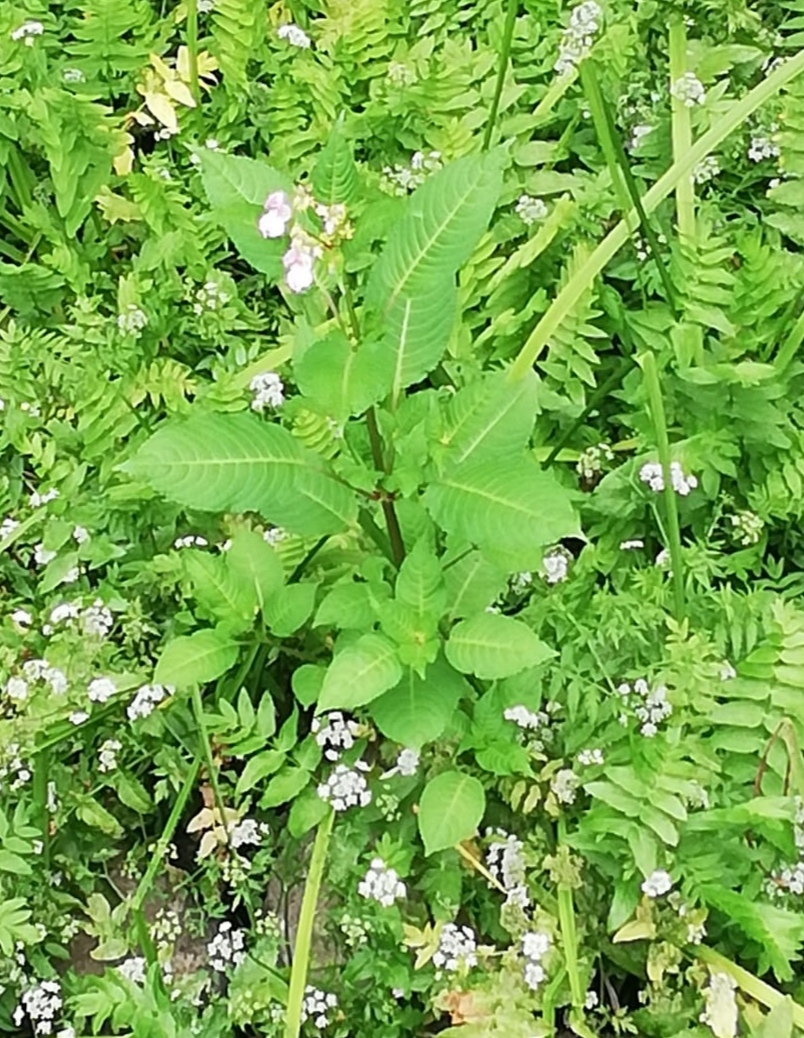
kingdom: Plantae
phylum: Tracheophyta
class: Magnoliopsida
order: Ericales
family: Balsaminaceae
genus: Impatiens
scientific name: Impatiens glandulifera
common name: Kæmpe-balsamin
